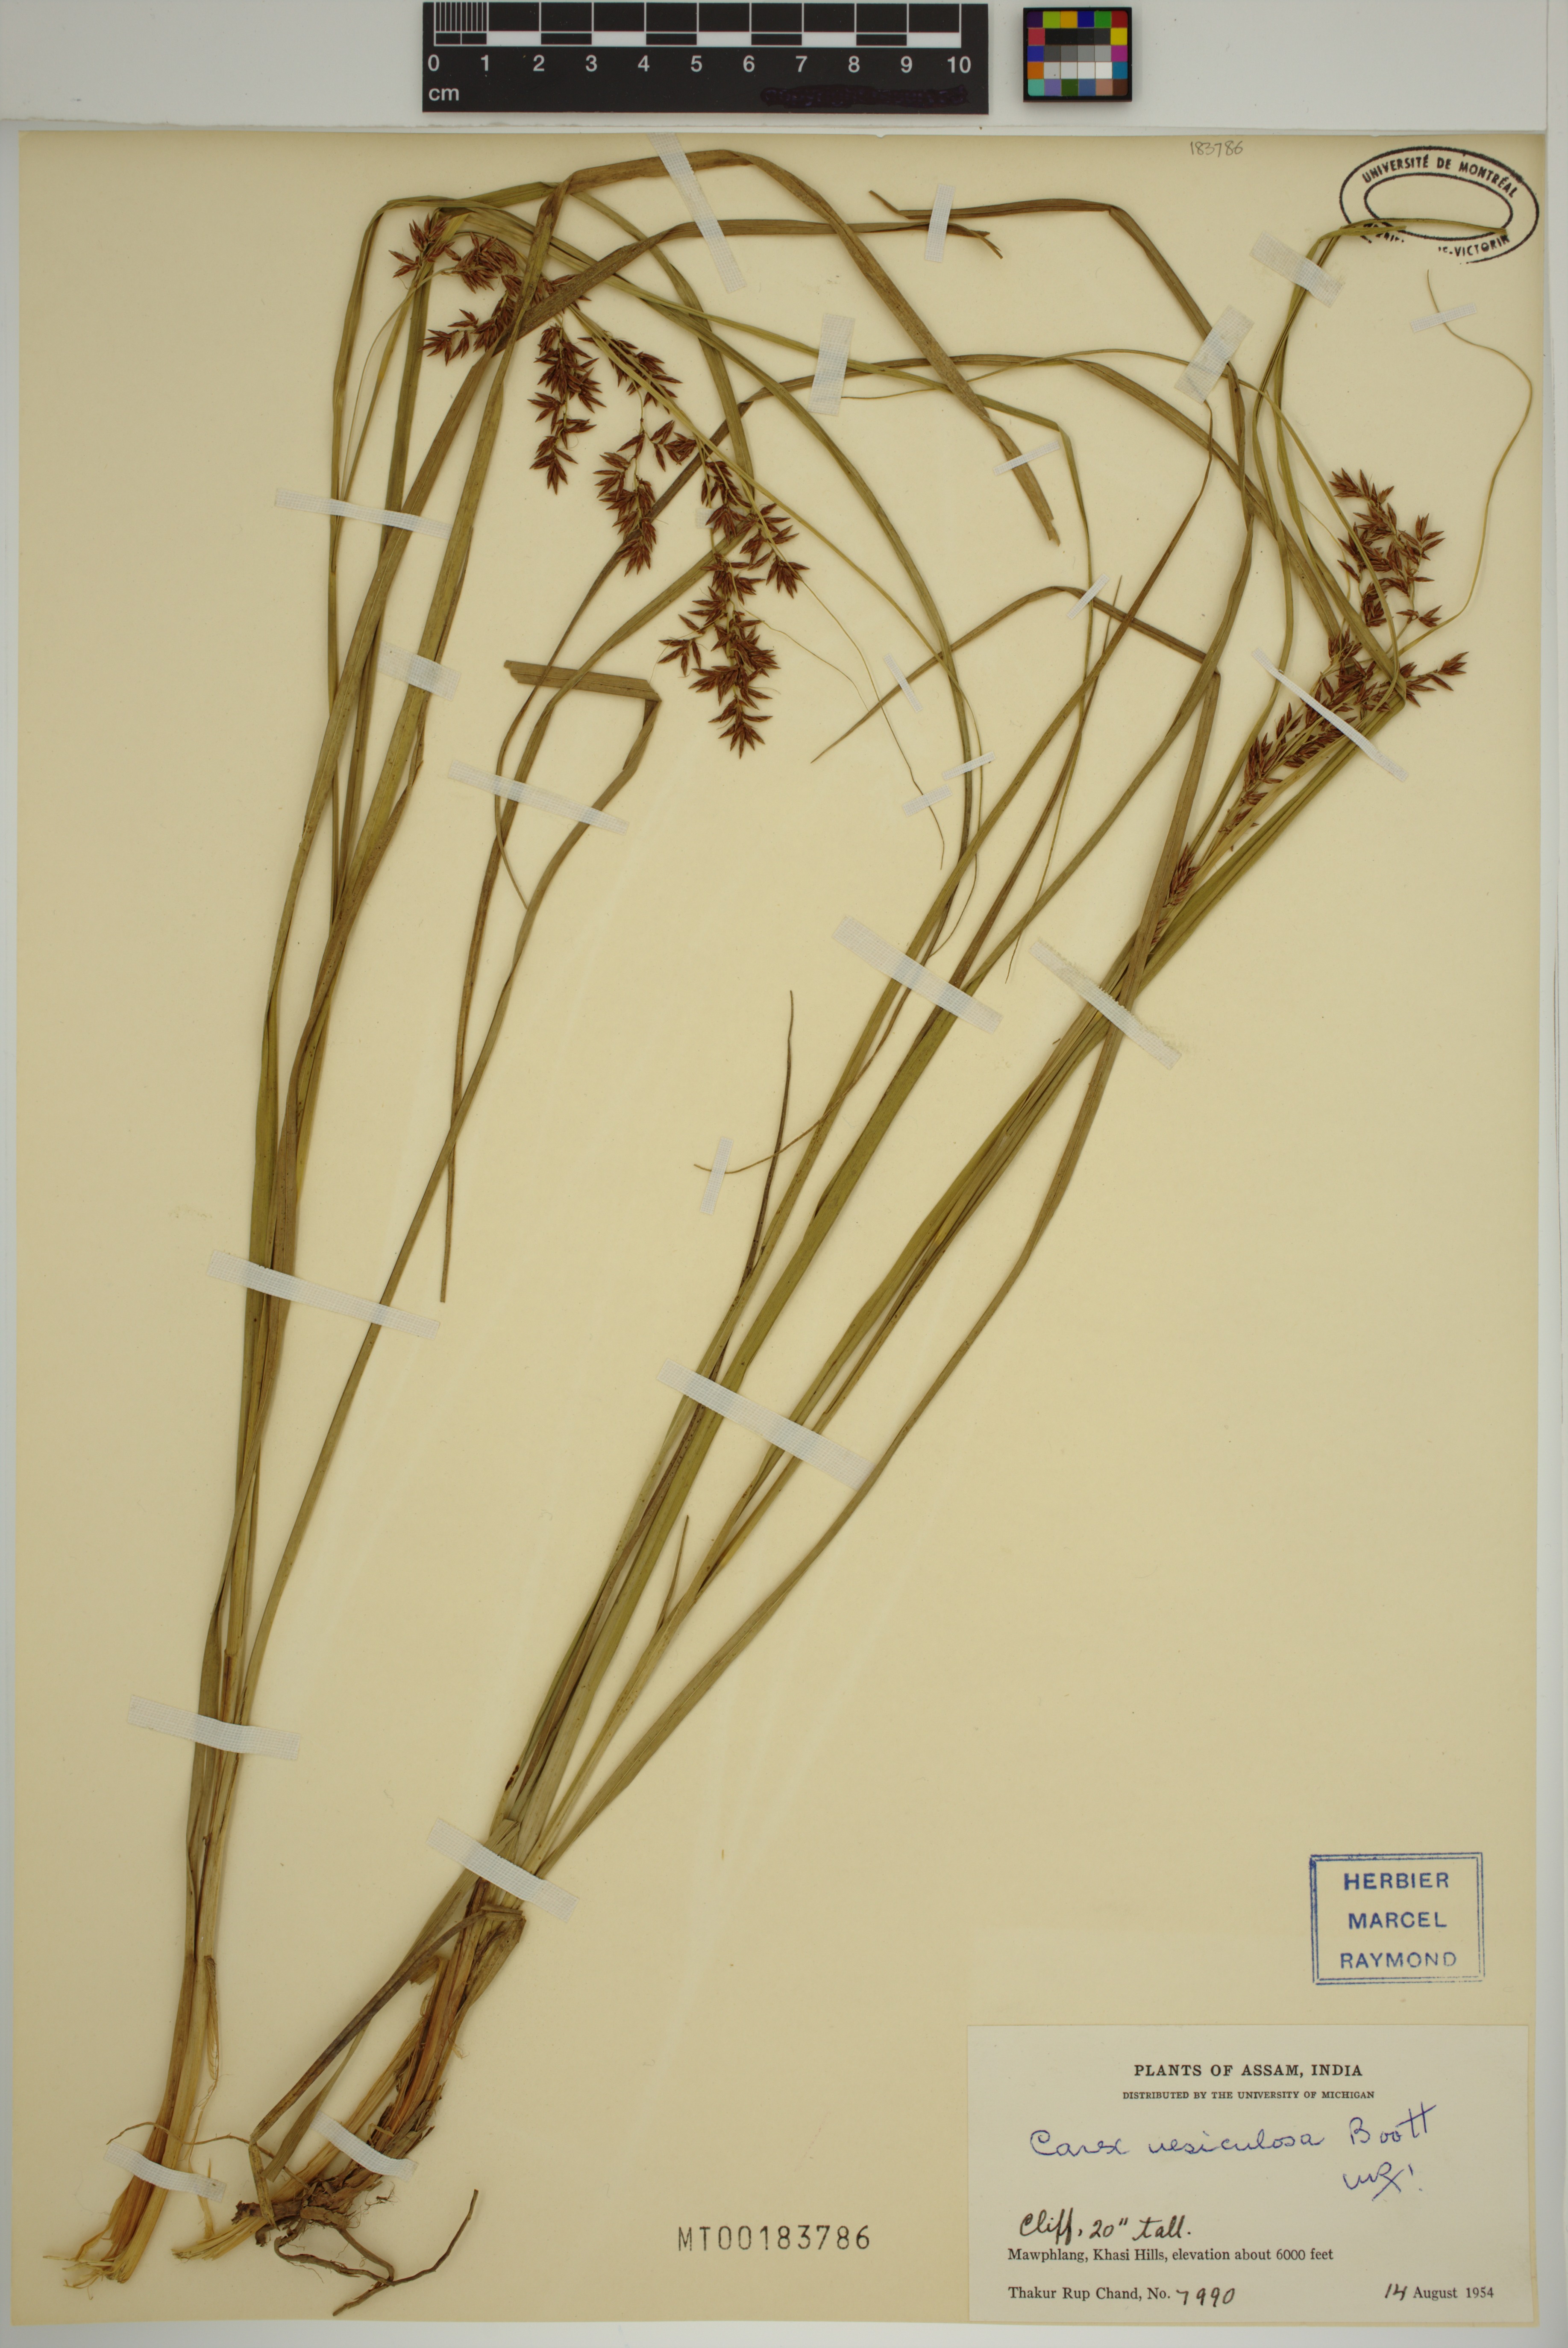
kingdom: Plantae
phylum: Tracheophyta
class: Liliopsida
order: Poales
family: Cyperaceae
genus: Carex
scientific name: Carex vesiculosa
